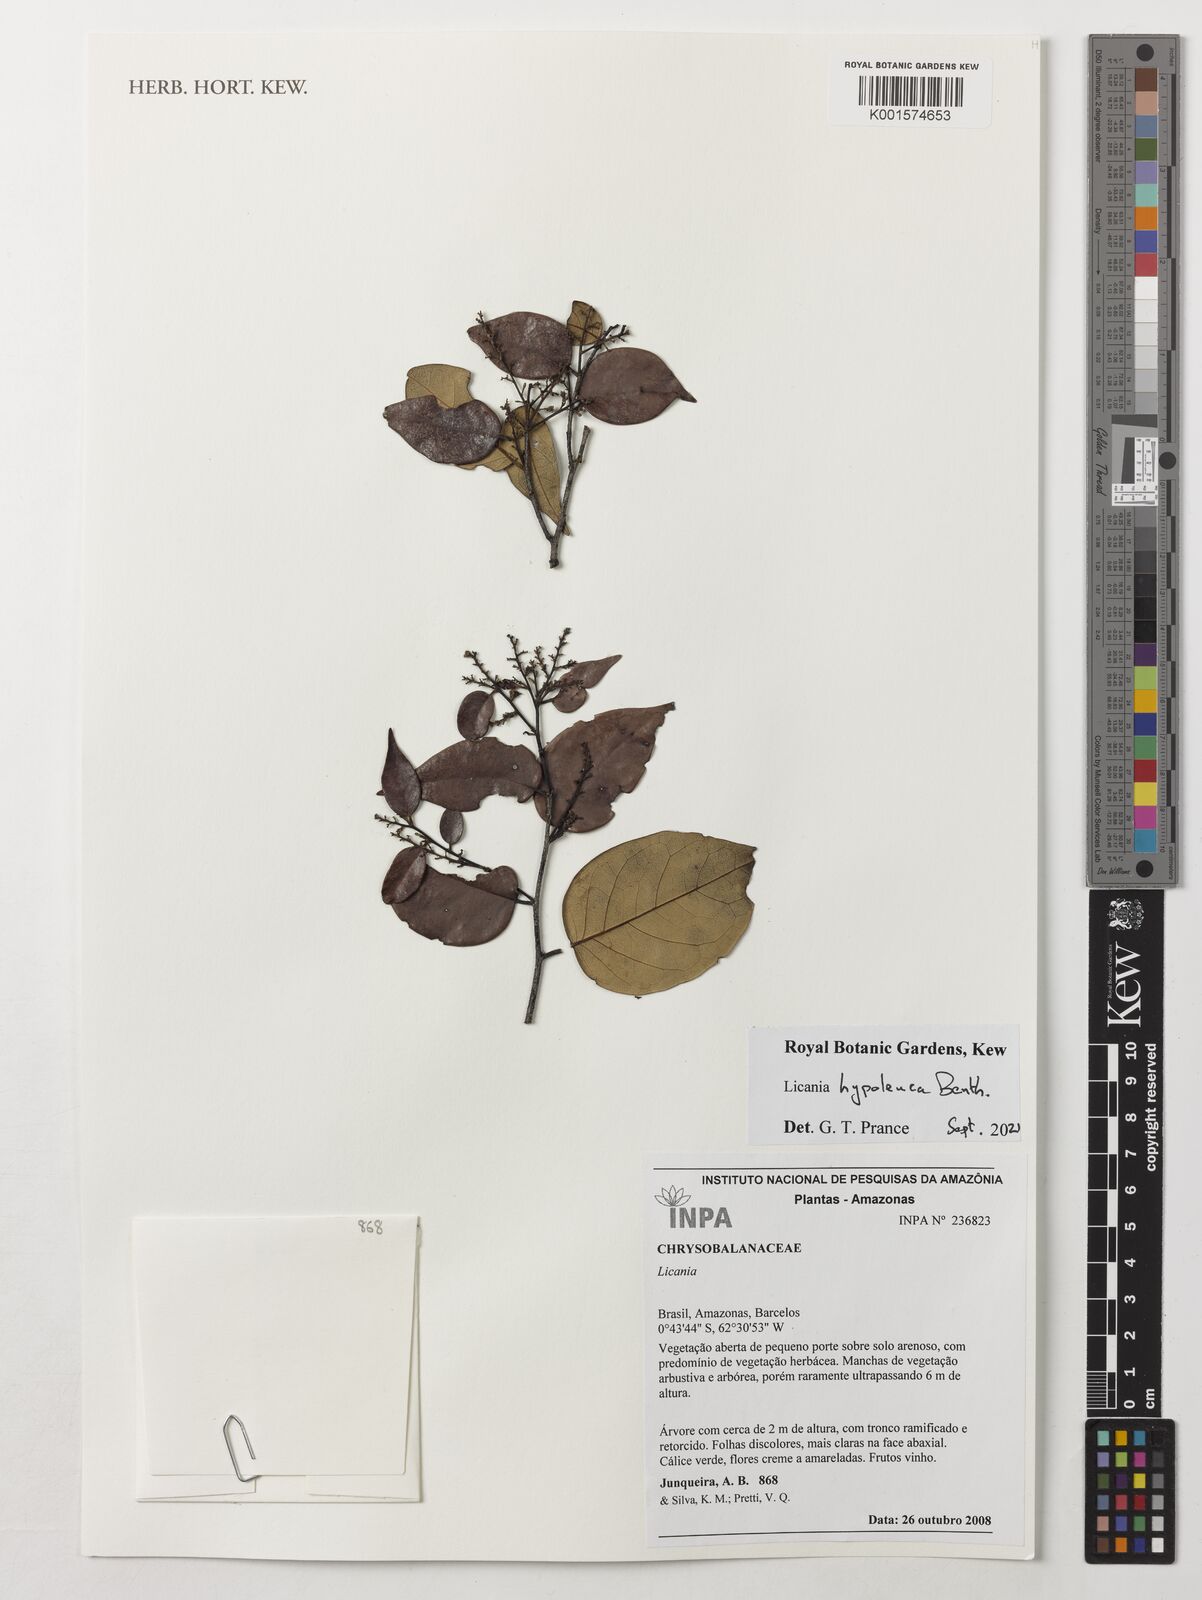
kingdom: Plantae
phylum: Tracheophyta
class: Magnoliopsida
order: Malpighiales
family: Chrysobalanaceae
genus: Licania
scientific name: Licania hypoleuca
